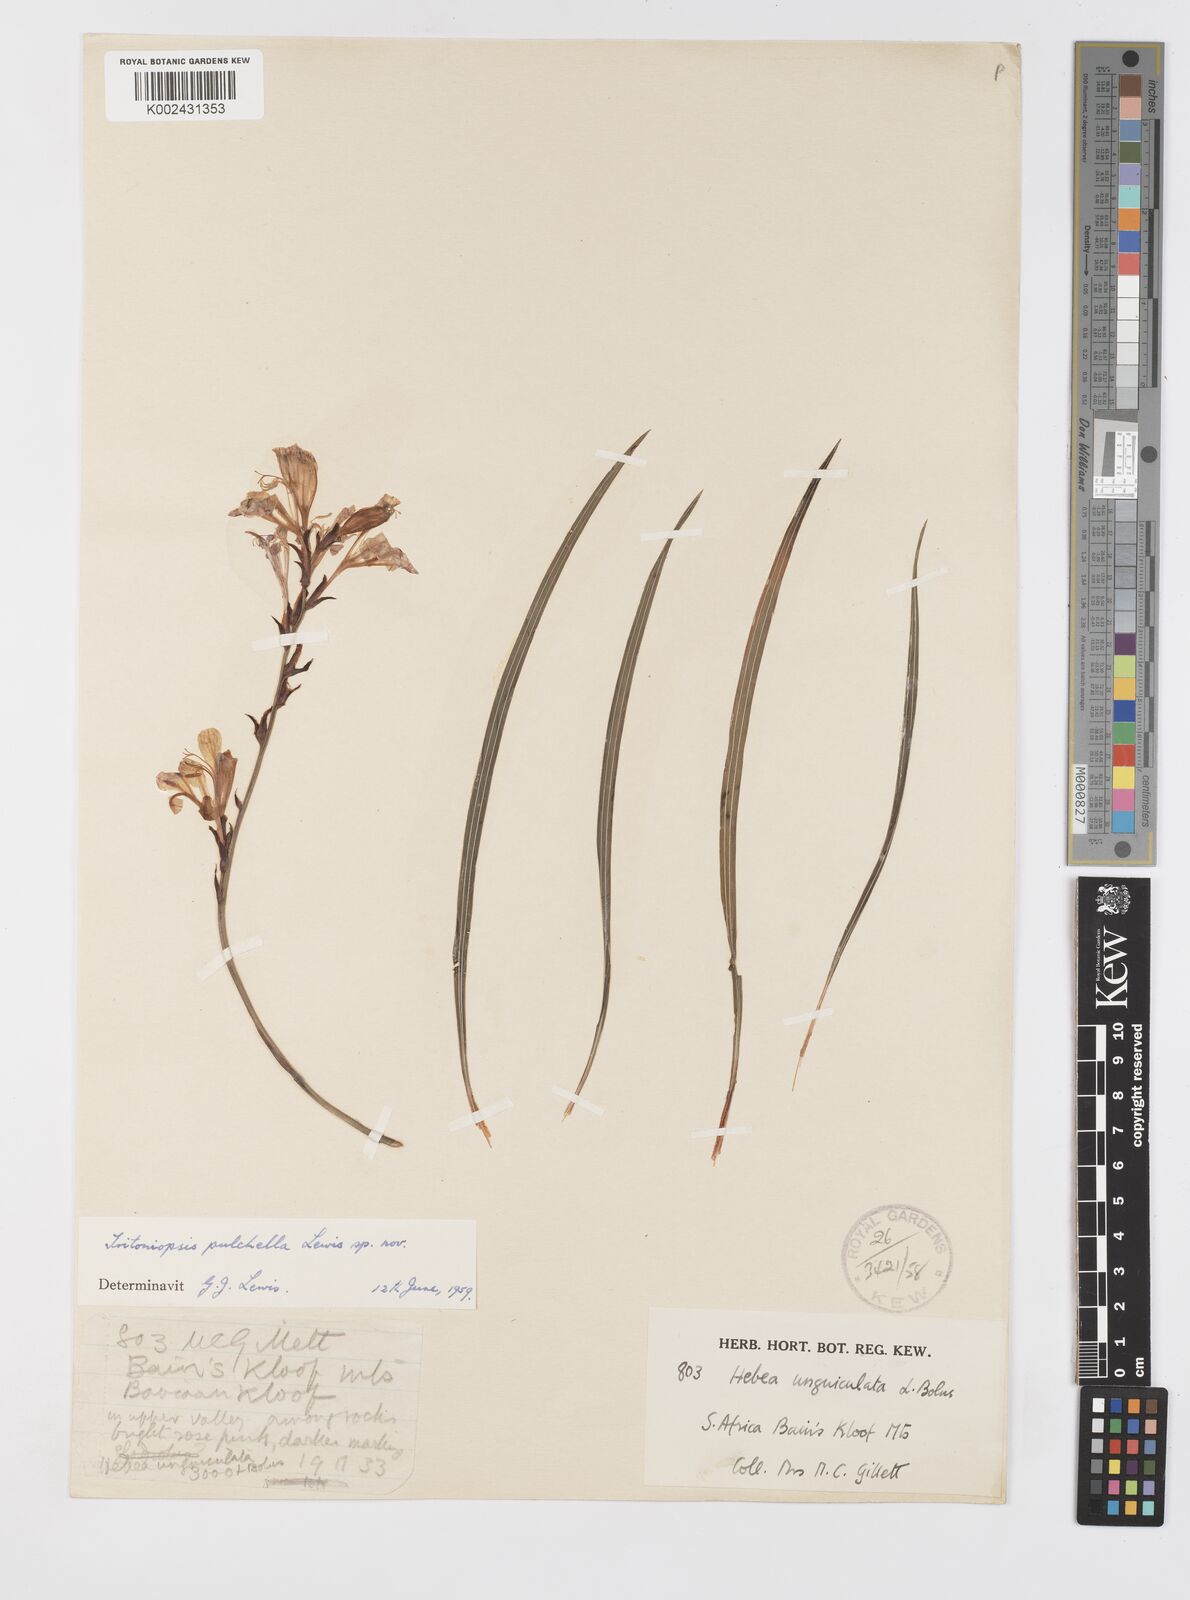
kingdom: Plantae
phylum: Tracheophyta
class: Liliopsida
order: Asparagales
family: Iridaceae
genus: Tritoniopsis
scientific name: Tritoniopsis pulchella
